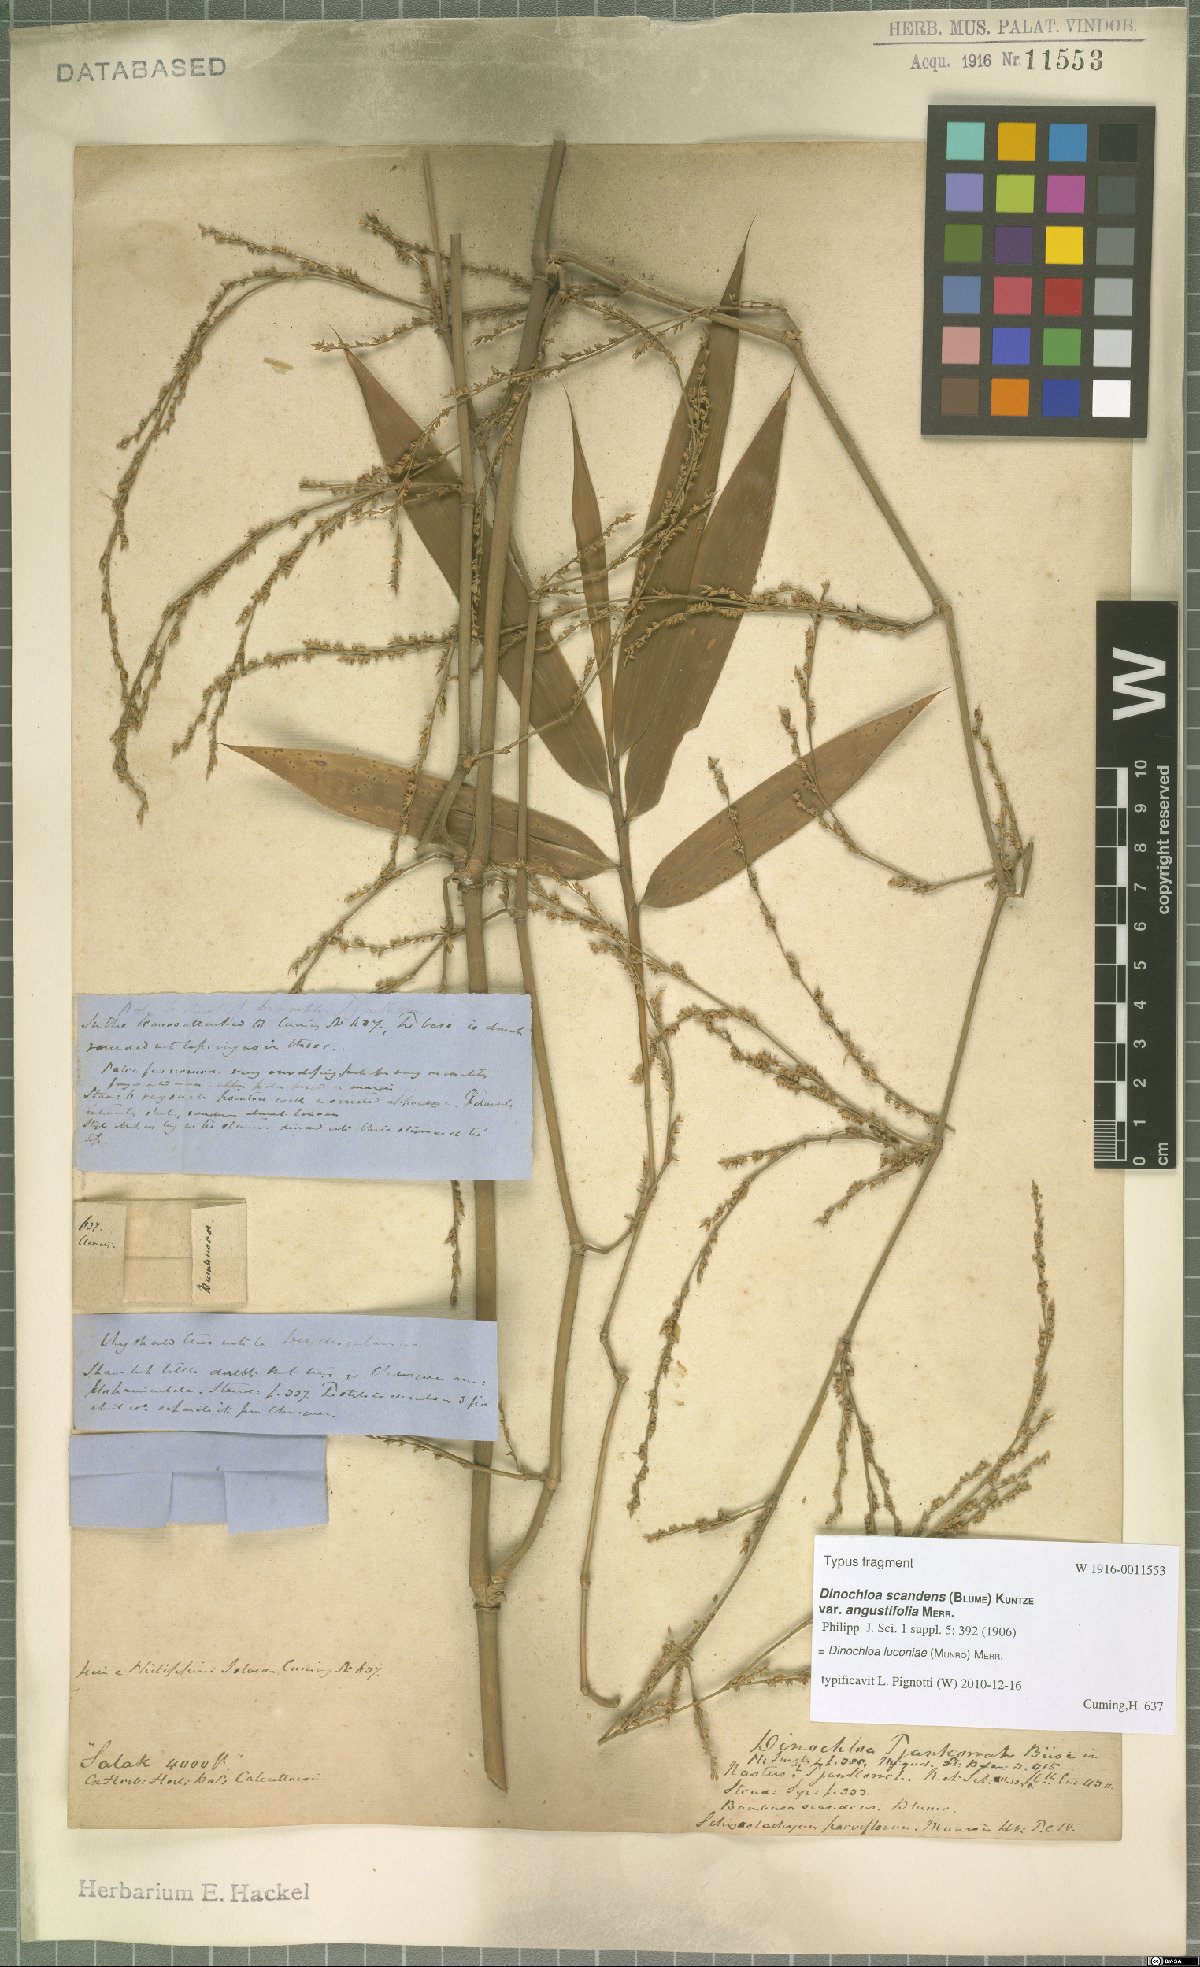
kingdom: Plantae
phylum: Tracheophyta
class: Liliopsida
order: Poales
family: Poaceae
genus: Dinochloa
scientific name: Dinochloa luconiae
